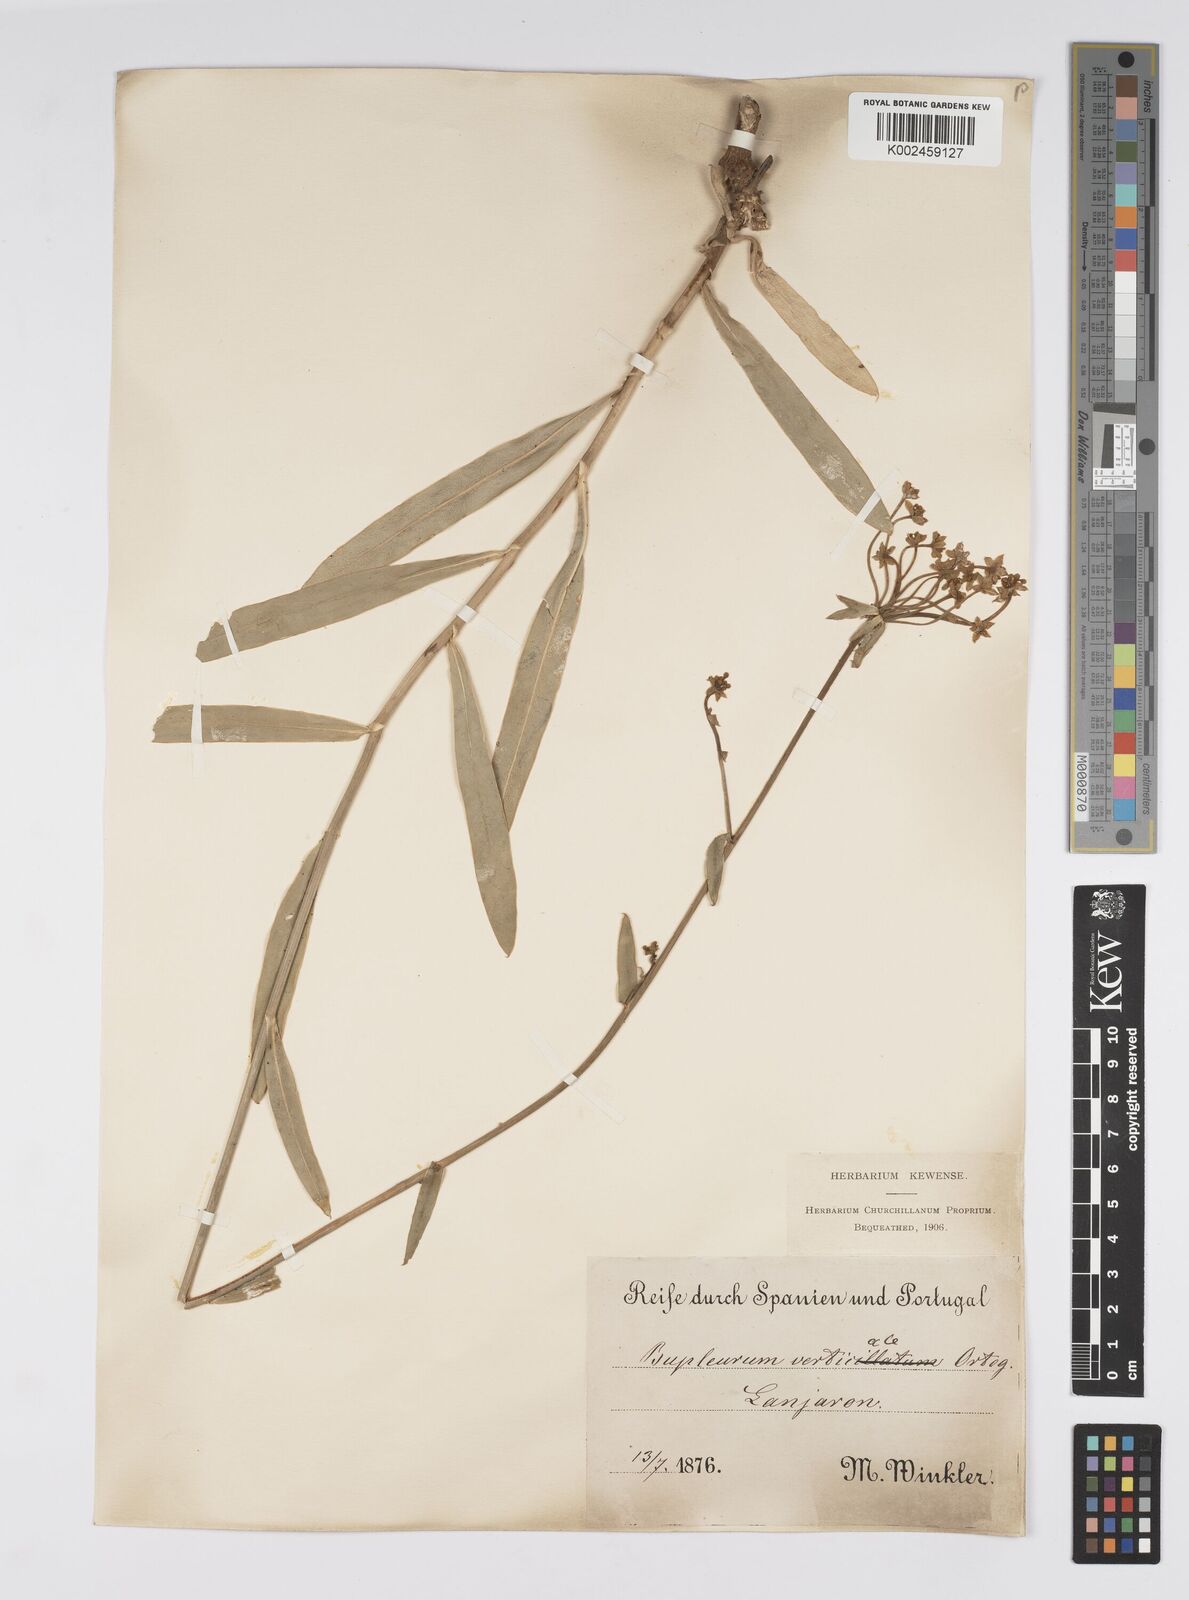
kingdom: Plantae
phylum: Tracheophyta
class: Magnoliopsida
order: Apiales
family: Apiaceae
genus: Bupleurum
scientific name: Bupleurum gibraltaricum
